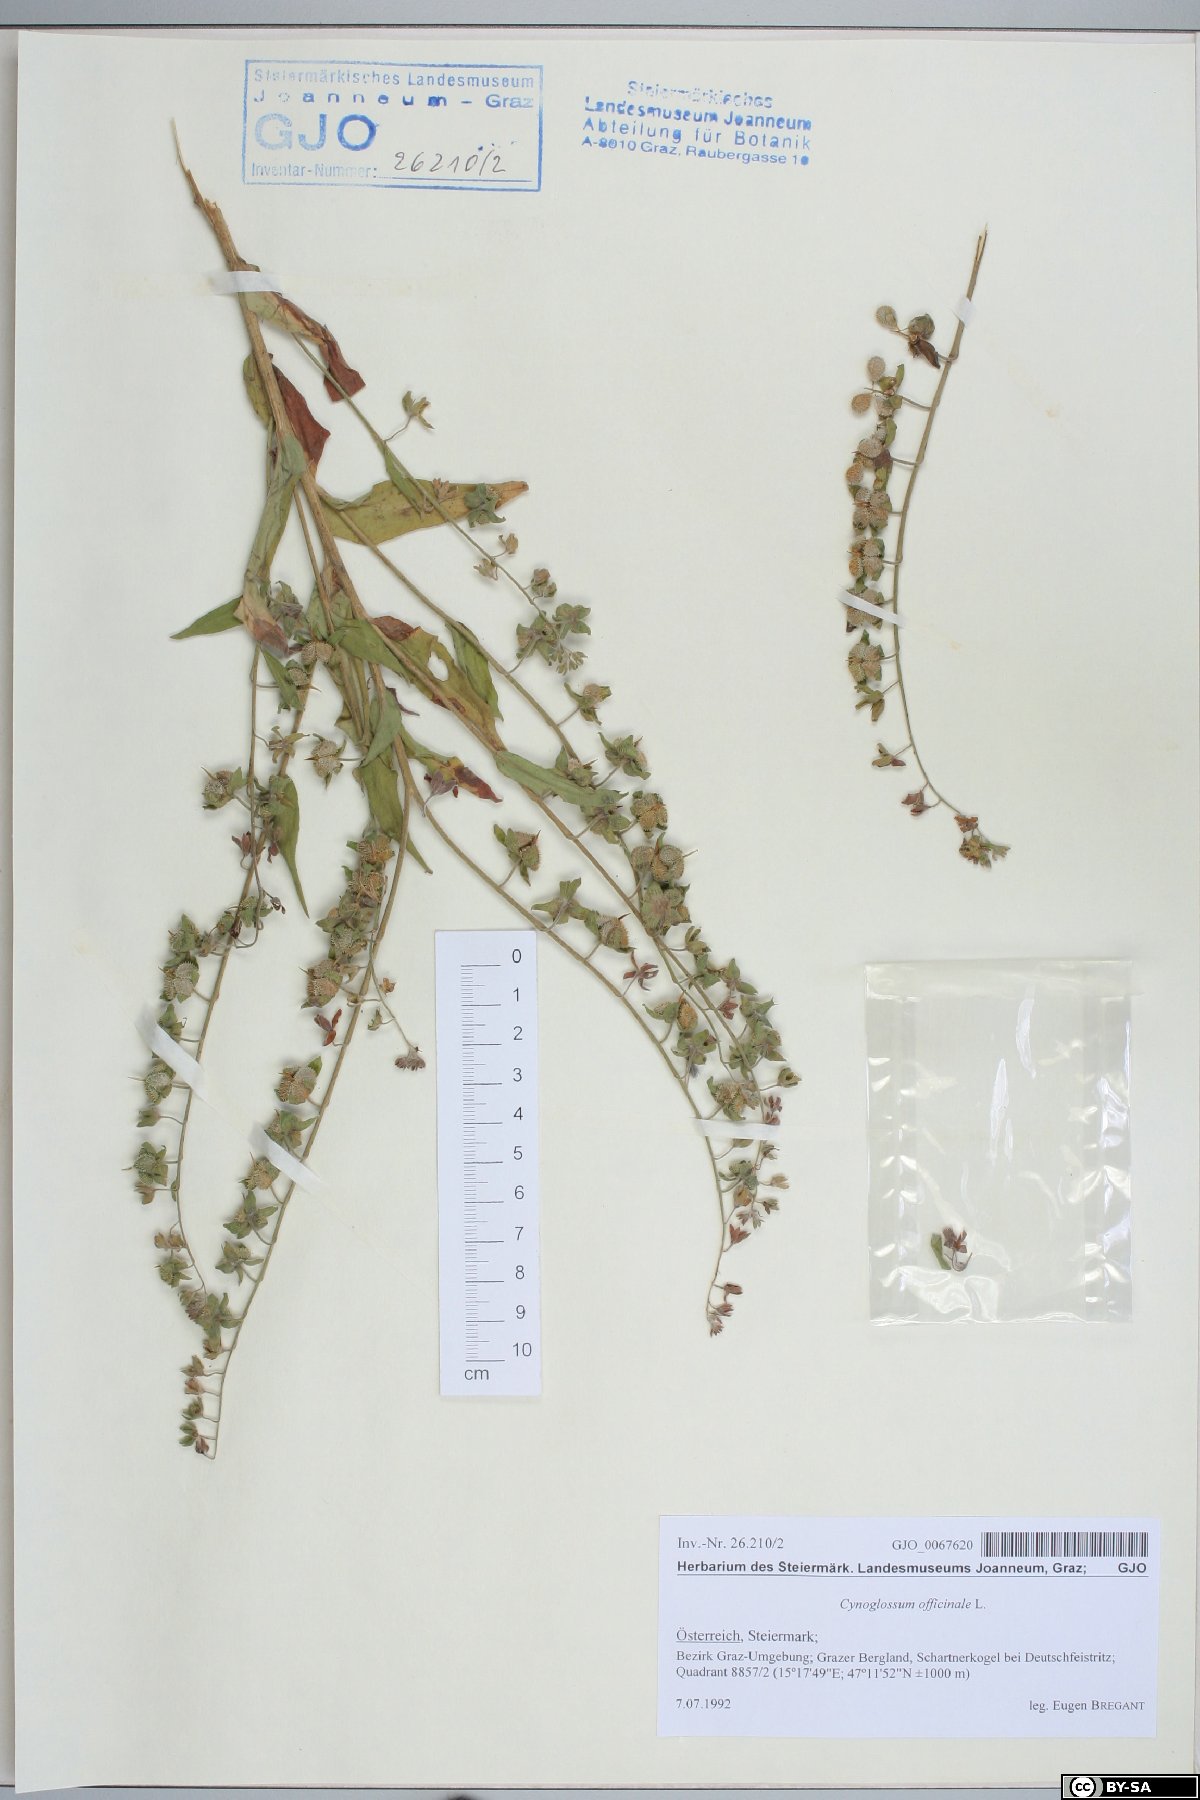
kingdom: Plantae
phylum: Tracheophyta
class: Magnoliopsida
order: Boraginales
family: Boraginaceae
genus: Cynoglossum
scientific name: Cynoglossum officinale
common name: Hound's-tongue
